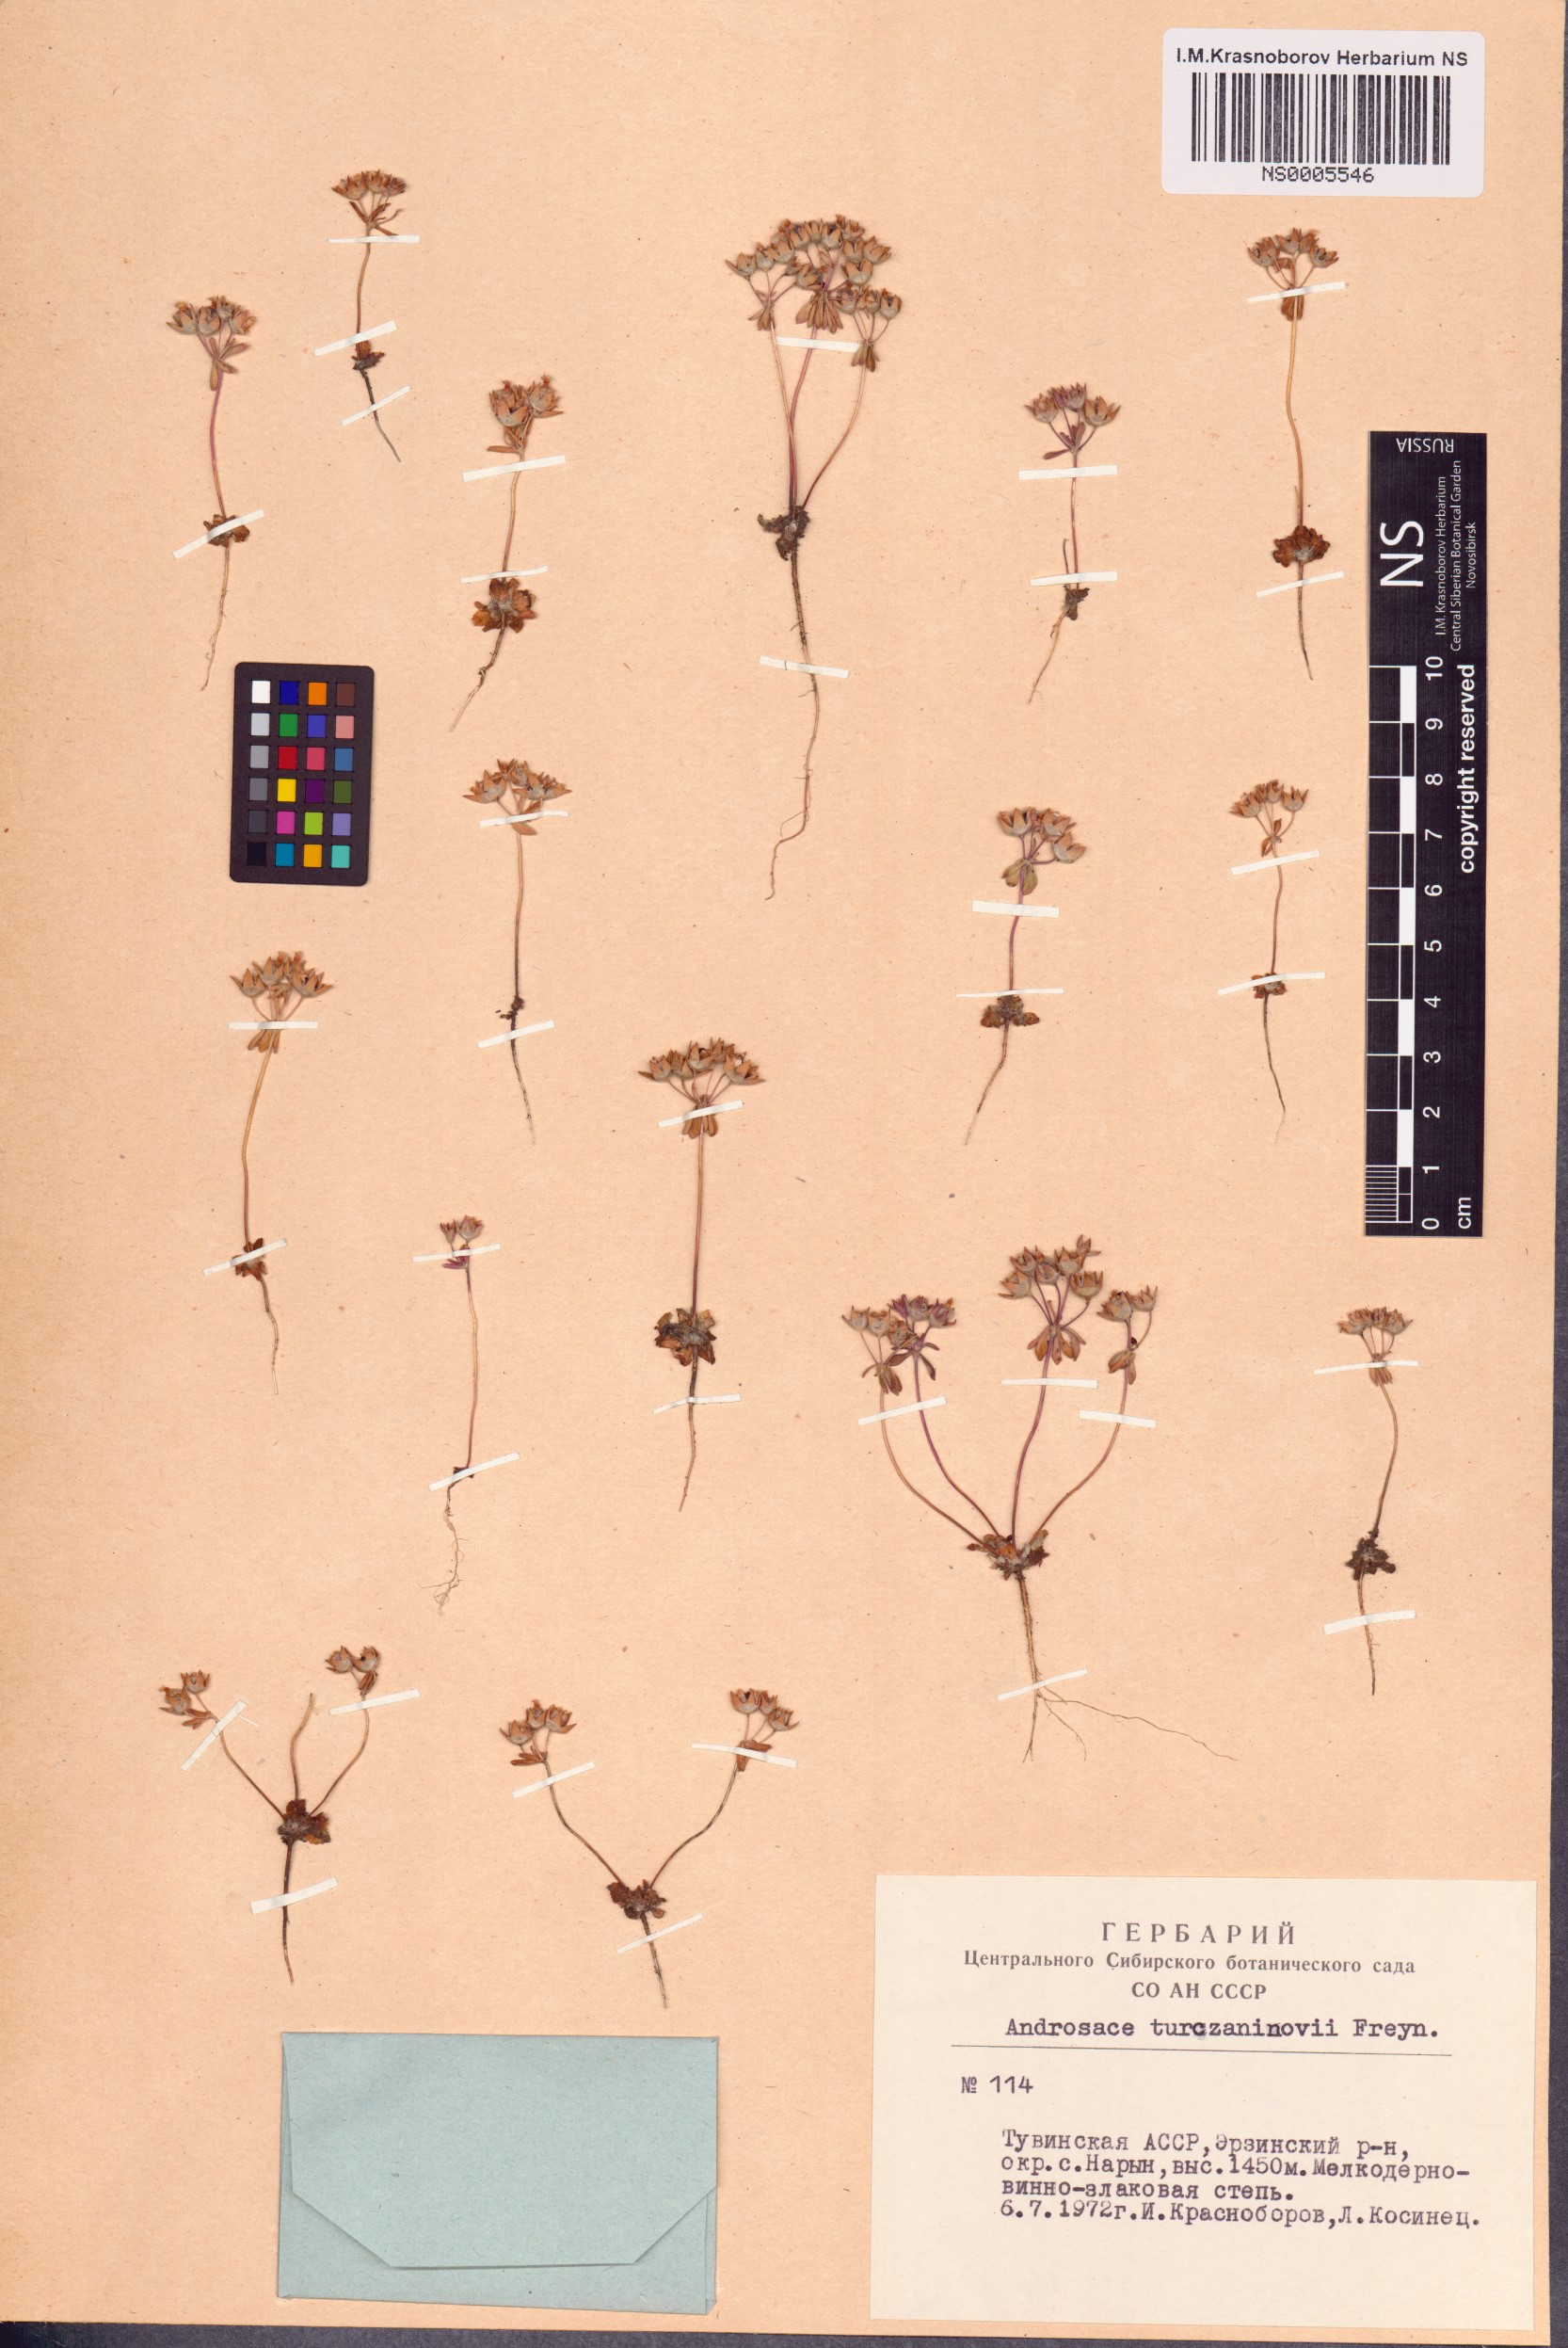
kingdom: Plantae
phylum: Tracheophyta
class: Magnoliopsida
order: Ericales
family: Primulaceae
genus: Androsace
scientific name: Androsace maxima
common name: Annual androsace
